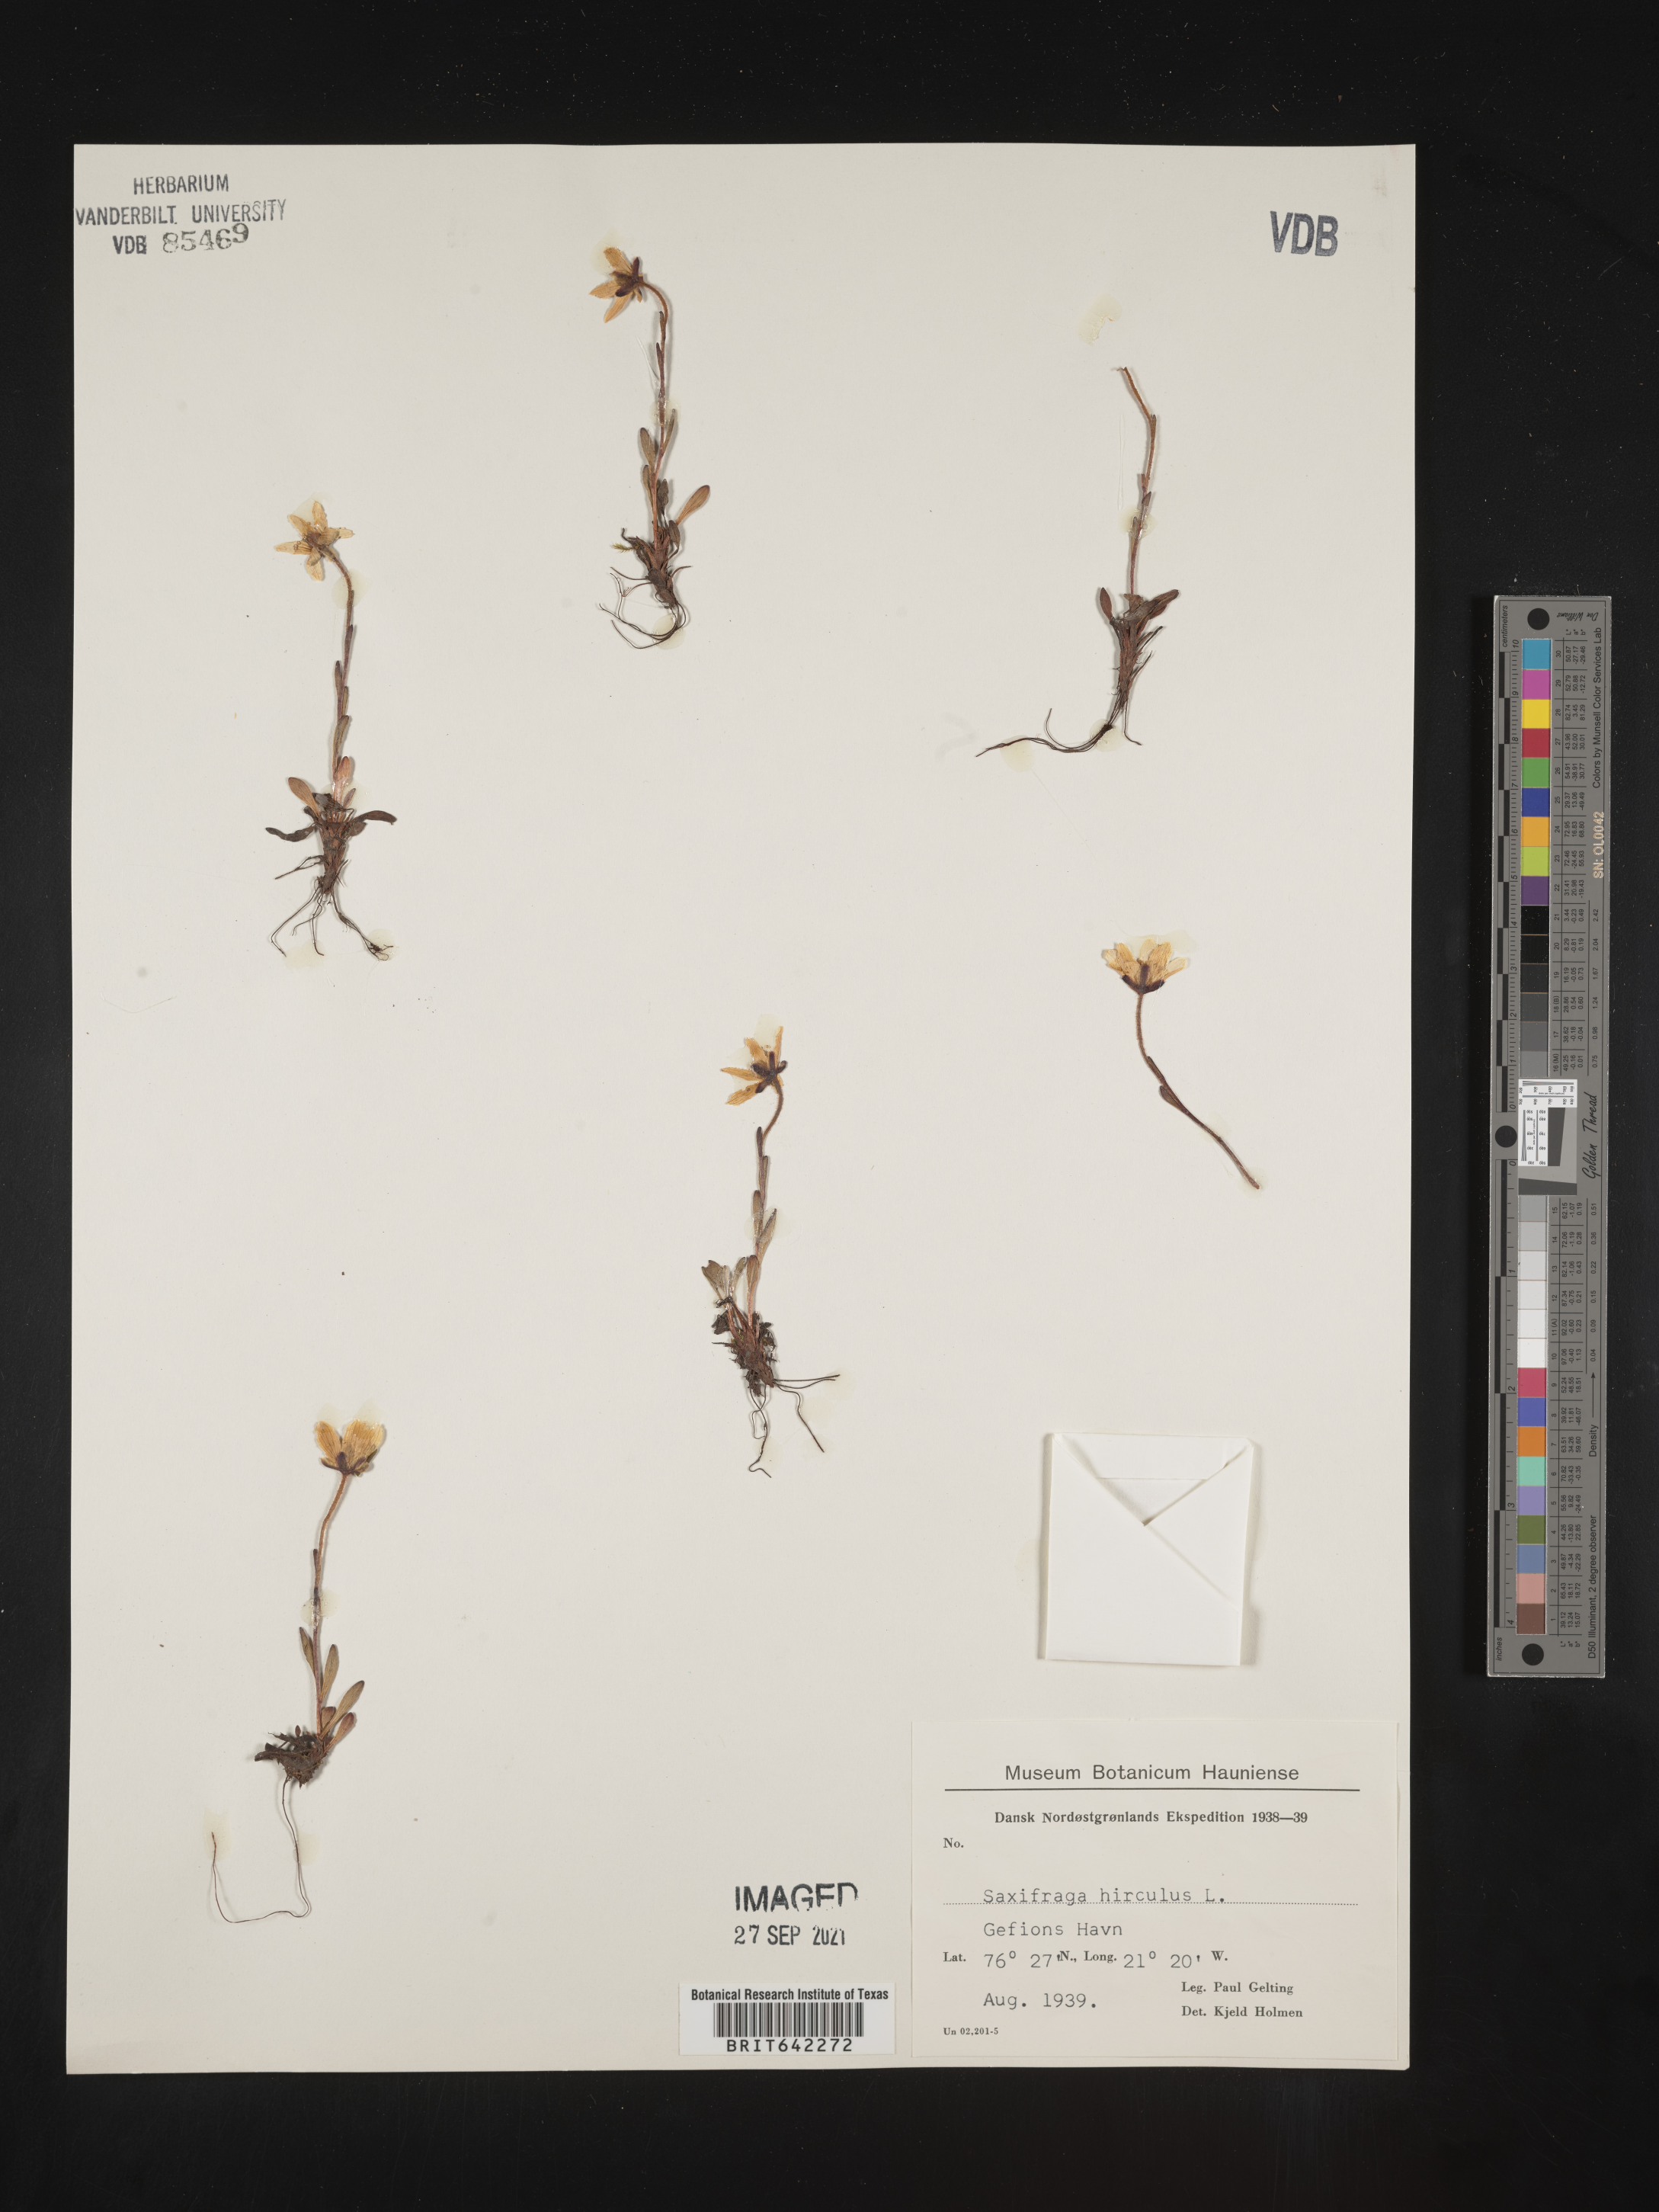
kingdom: Plantae
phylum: Tracheophyta
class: Magnoliopsida
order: Saxifragales
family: Saxifragaceae
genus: Saxifraga
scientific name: Saxifraga
